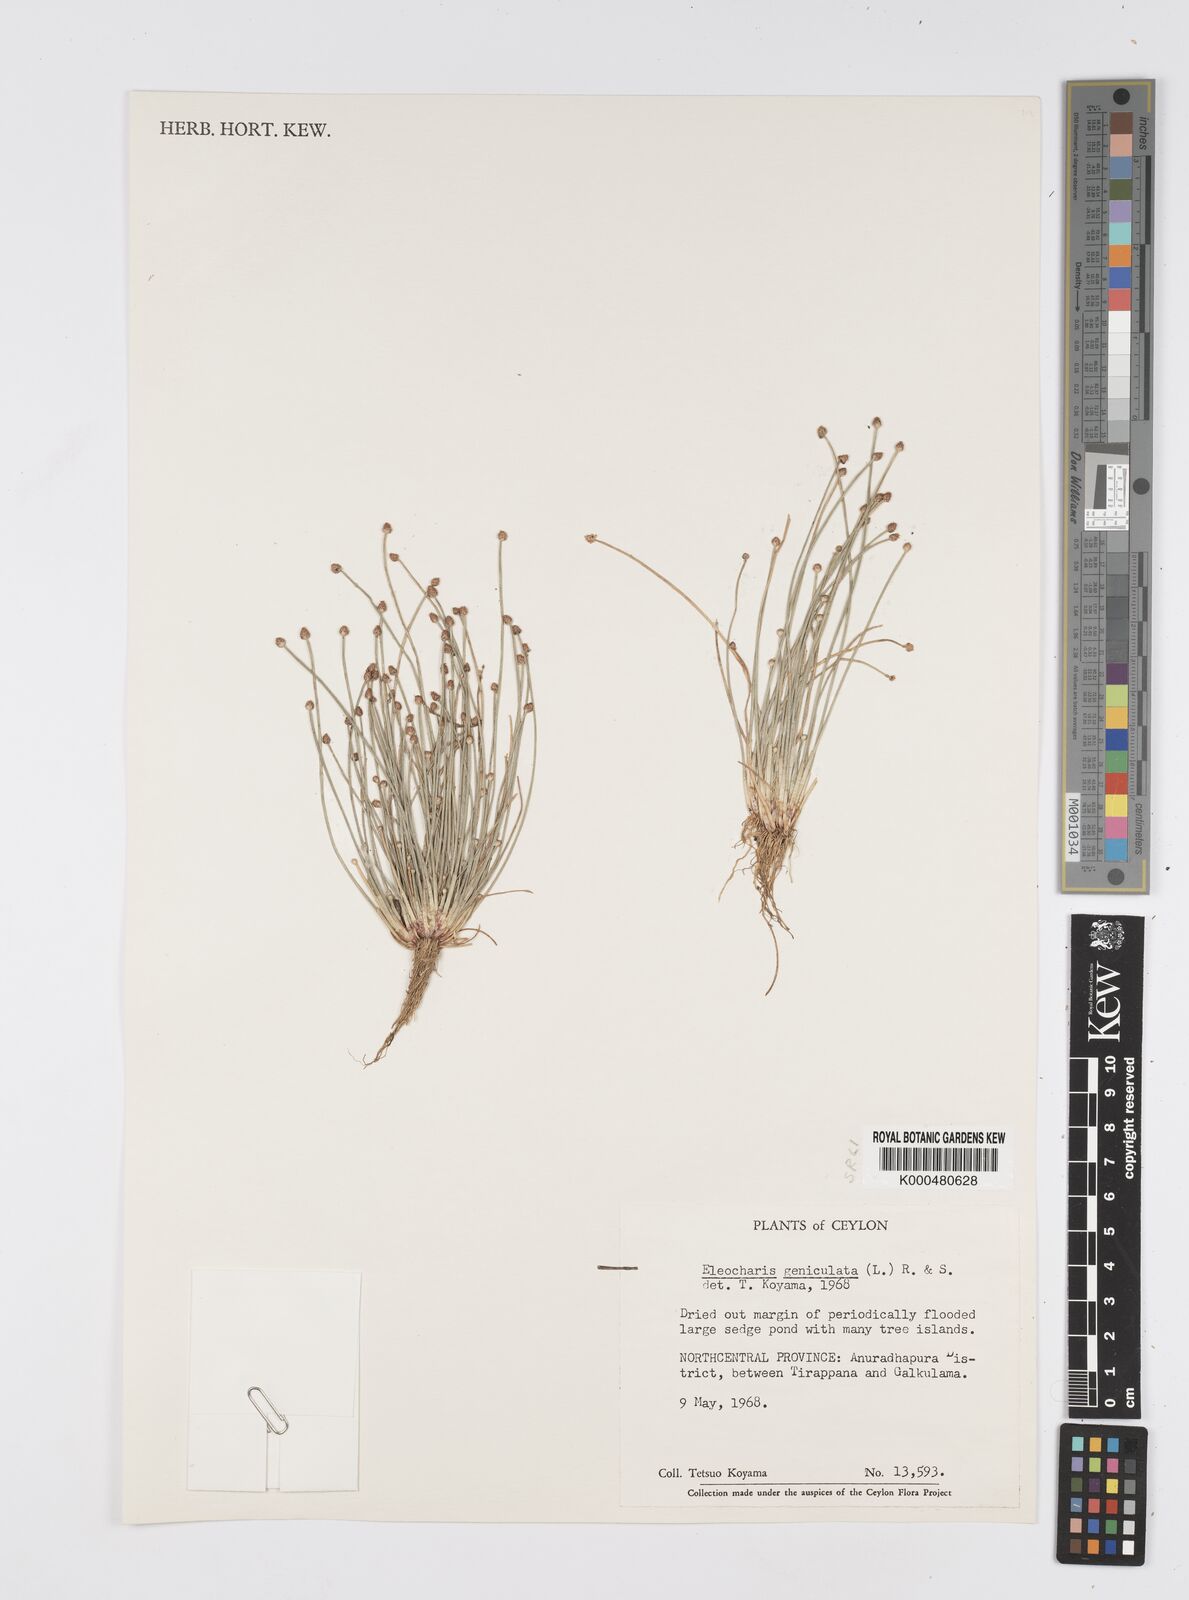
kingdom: Plantae
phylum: Tracheophyta
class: Liliopsida
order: Poales
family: Cyperaceae
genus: Eleocharis
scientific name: Eleocharis geniculata
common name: Canada spikesedge
